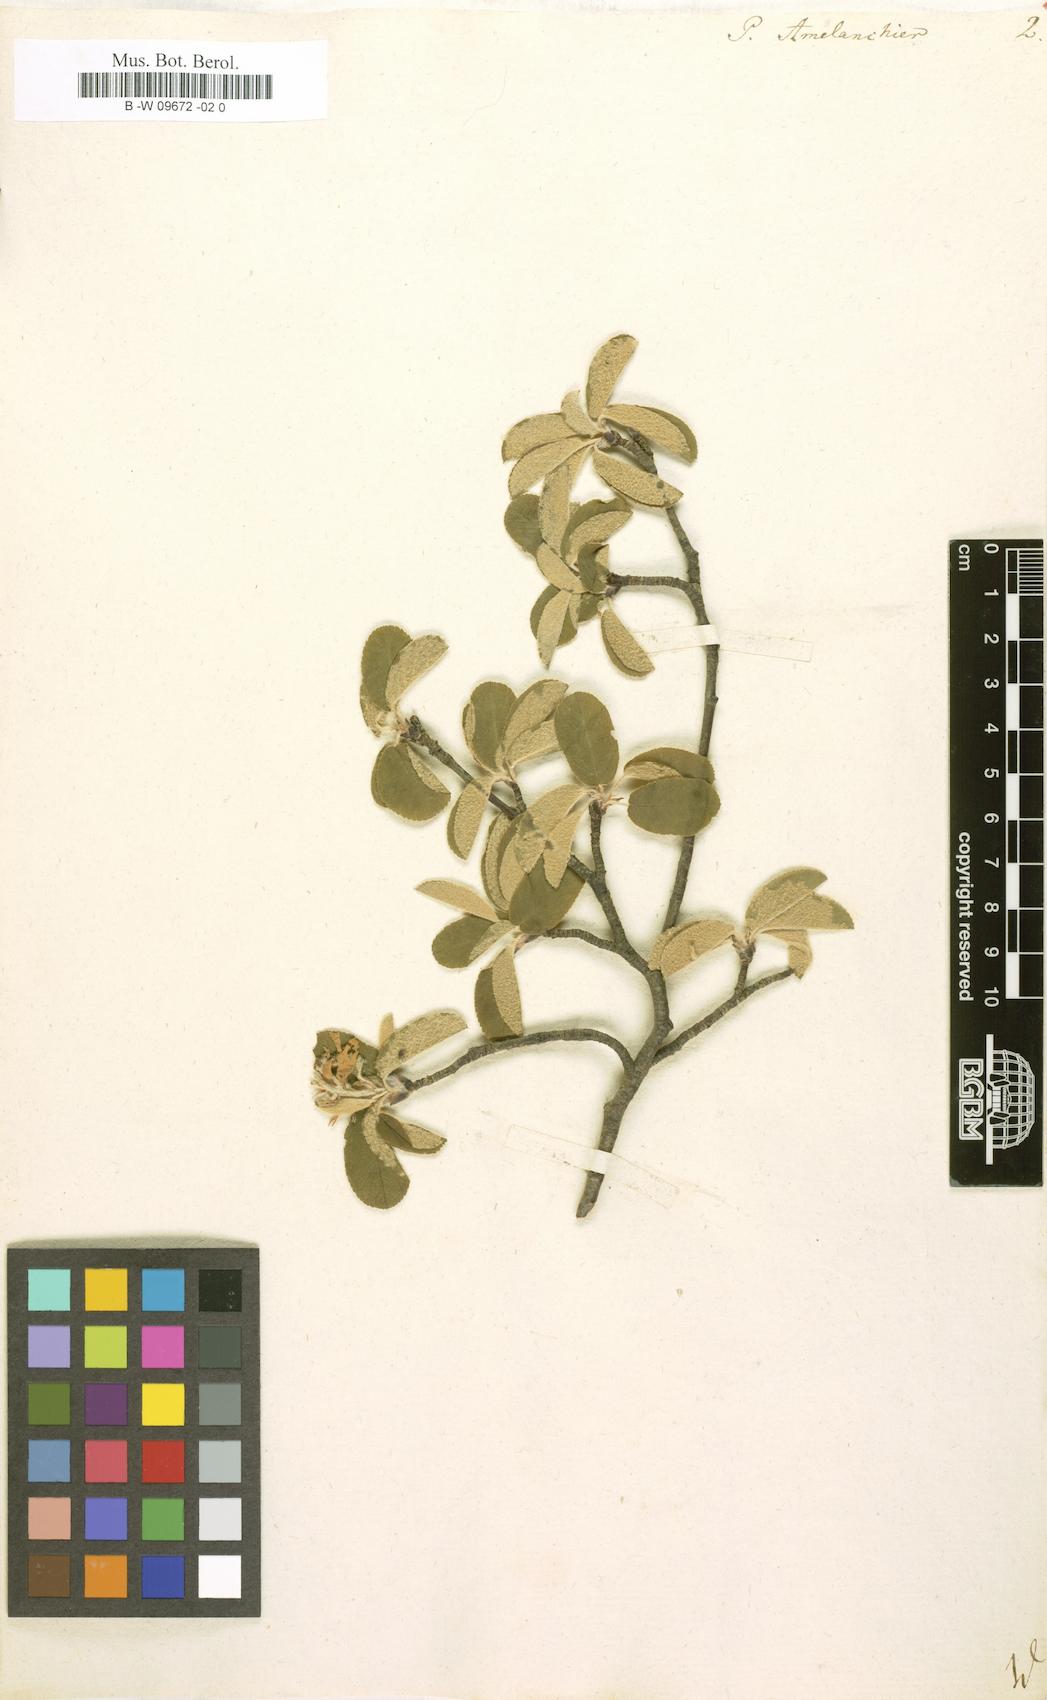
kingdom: Plantae
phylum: Tracheophyta
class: Magnoliopsida
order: Rosales
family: Rosaceae
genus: Pyrus
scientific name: Pyrus amelanchier
